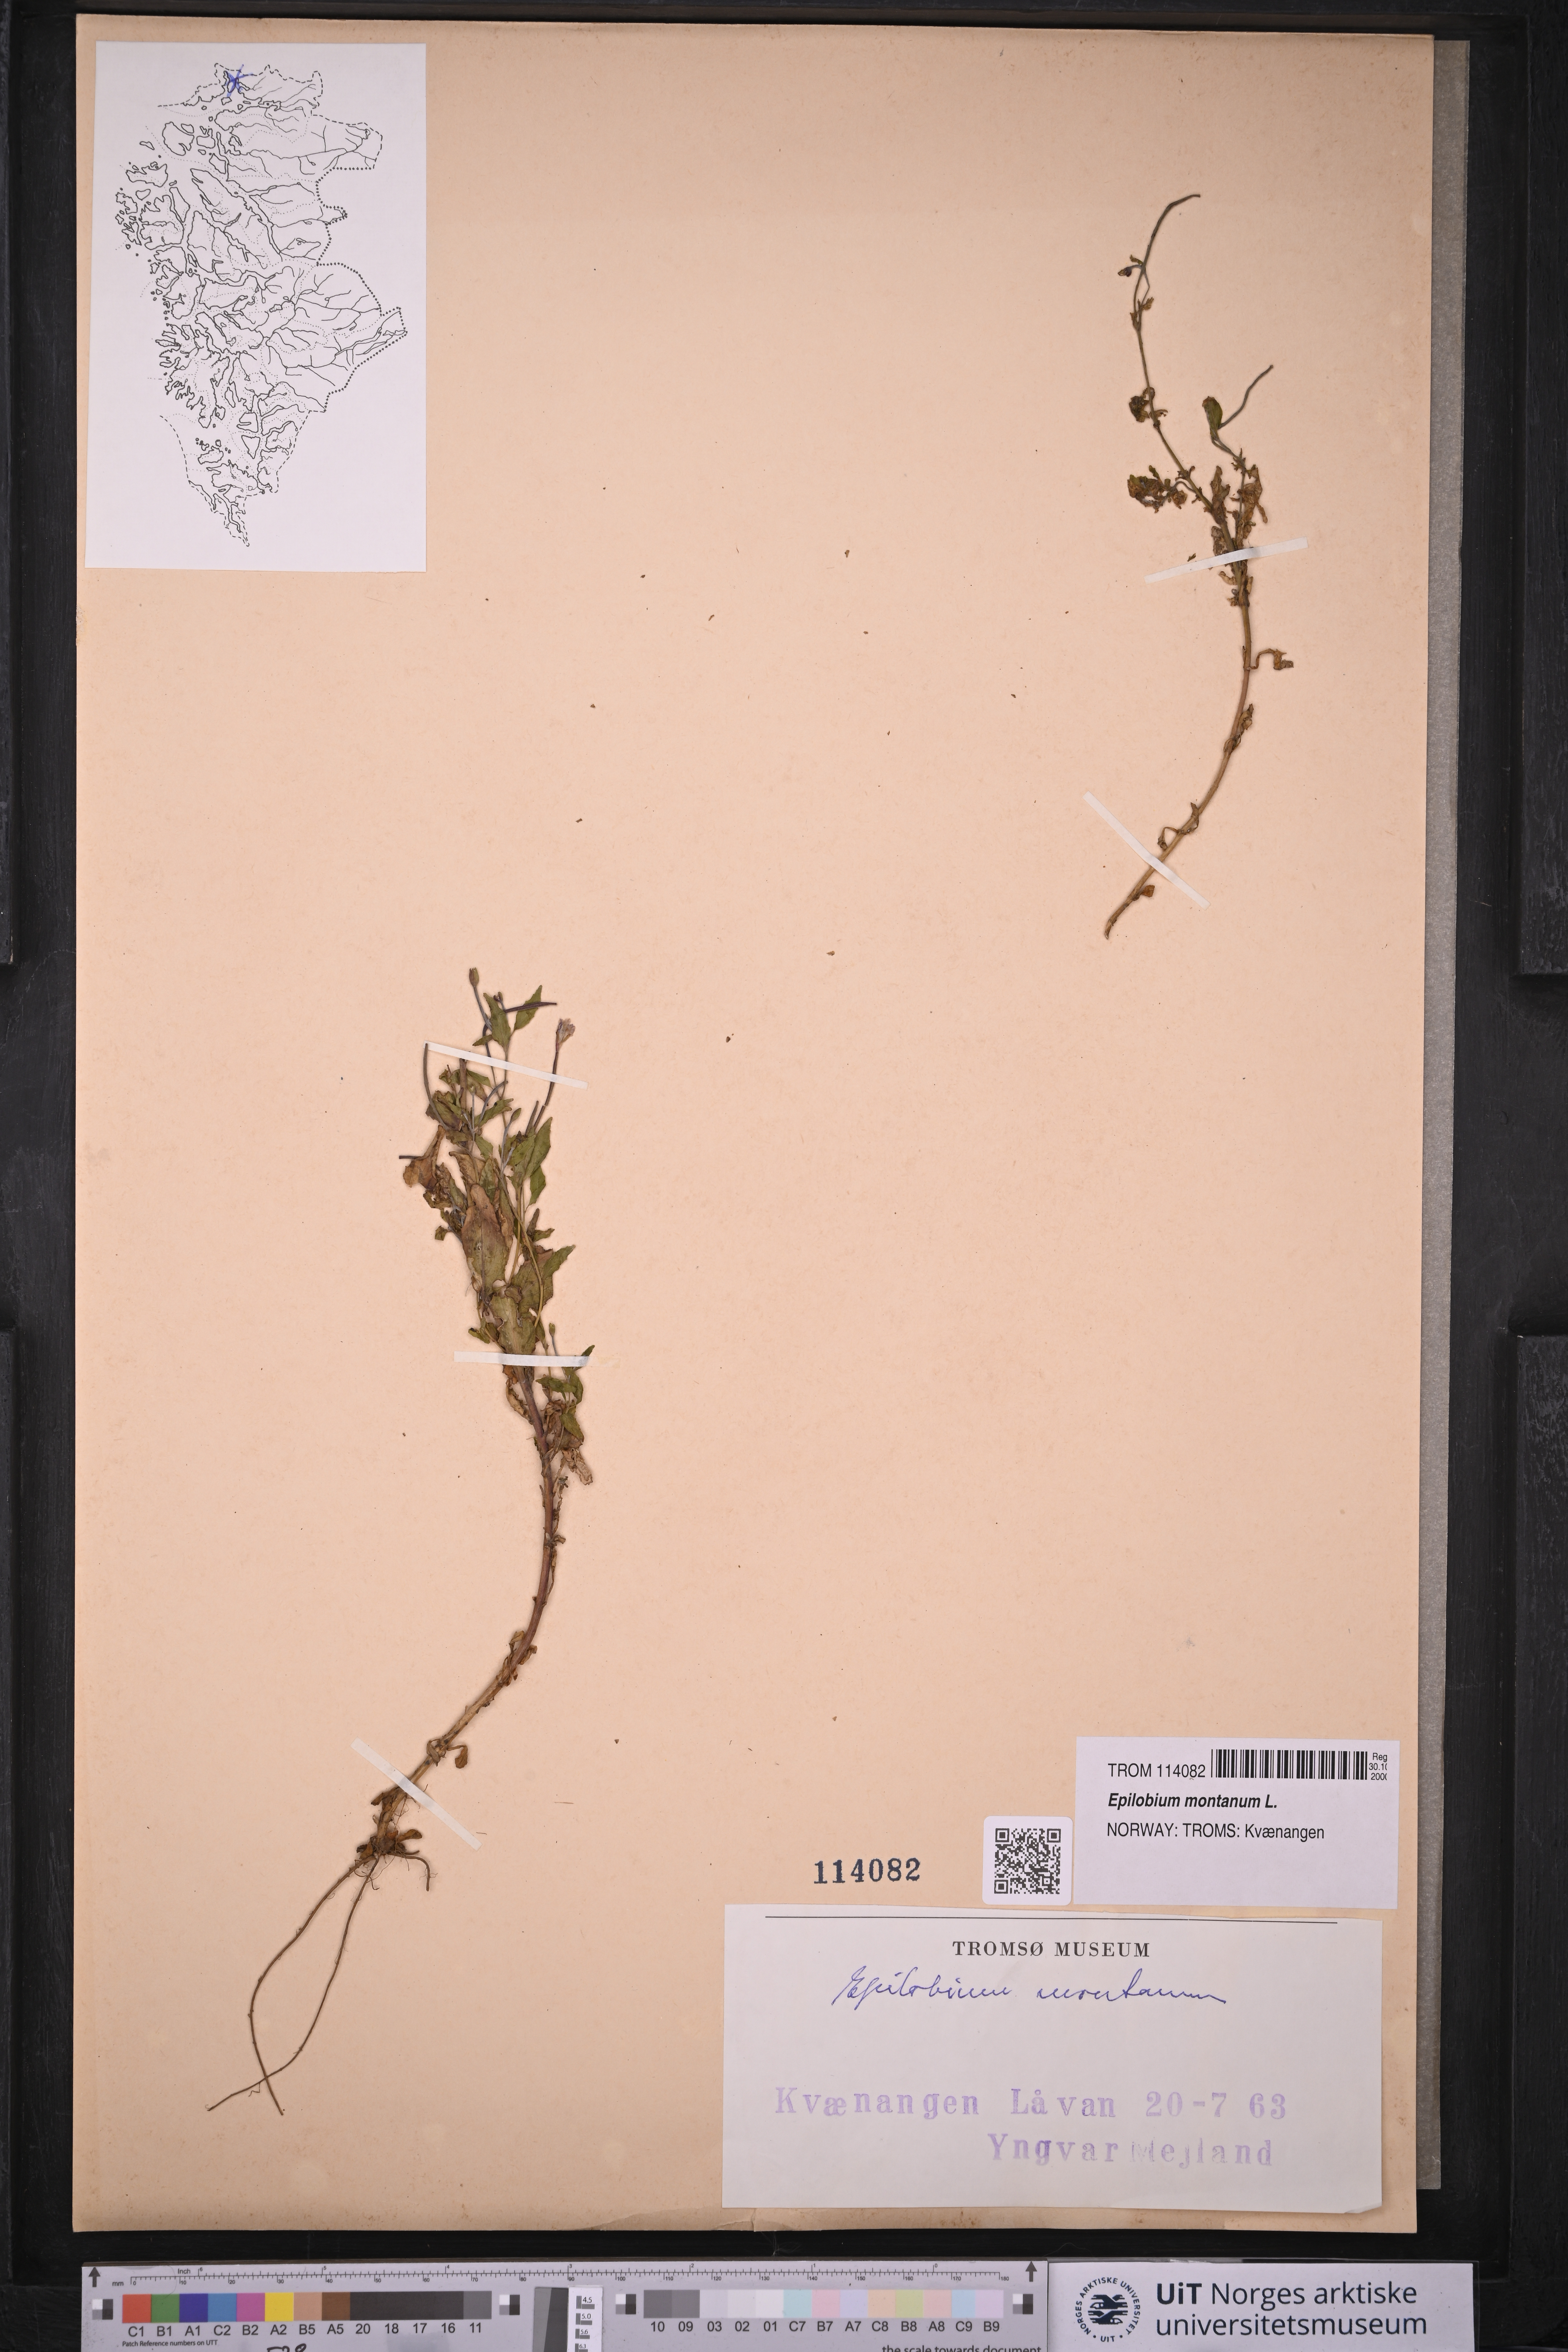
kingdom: Plantae
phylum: Tracheophyta
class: Magnoliopsida
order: Myrtales
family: Onagraceae
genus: Epilobium
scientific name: Epilobium montanum
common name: Broad-leaved willowherb
